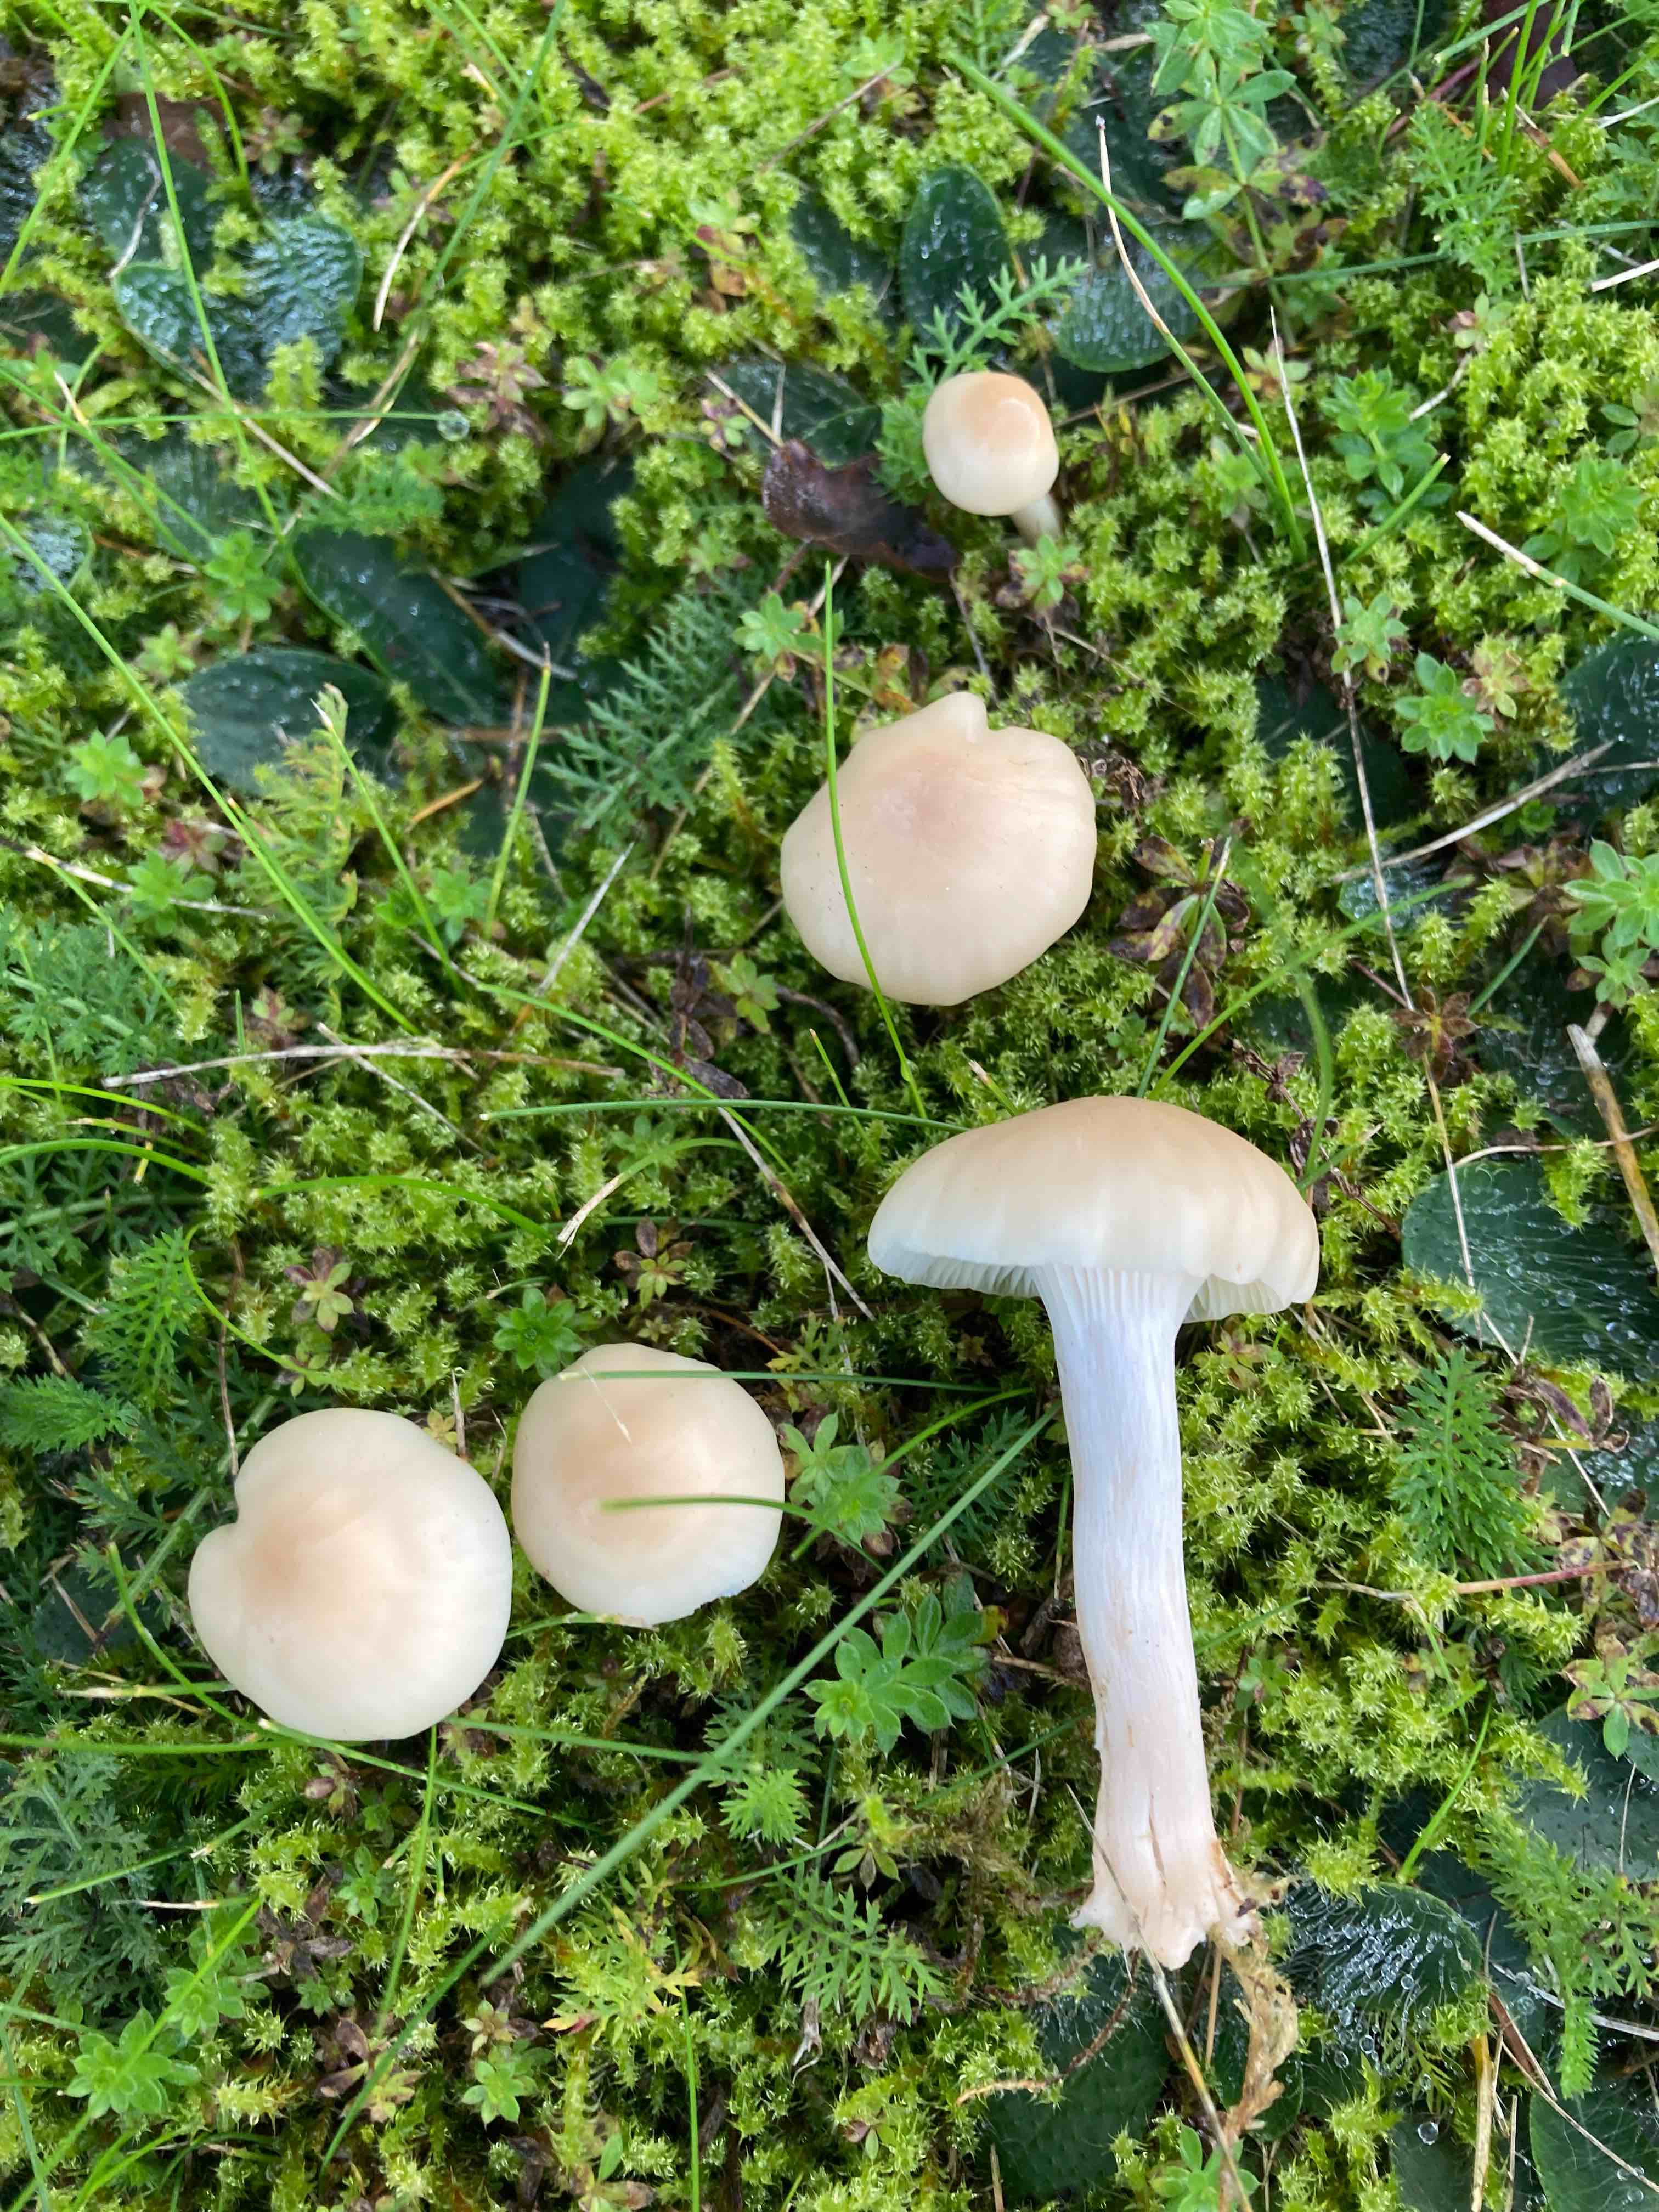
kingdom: Fungi
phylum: Basidiomycota
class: Agaricomycetes
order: Agaricales
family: Hygrophoraceae
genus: Cuphophyllus
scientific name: Cuphophyllus virgineus
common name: isabella-vokshat
